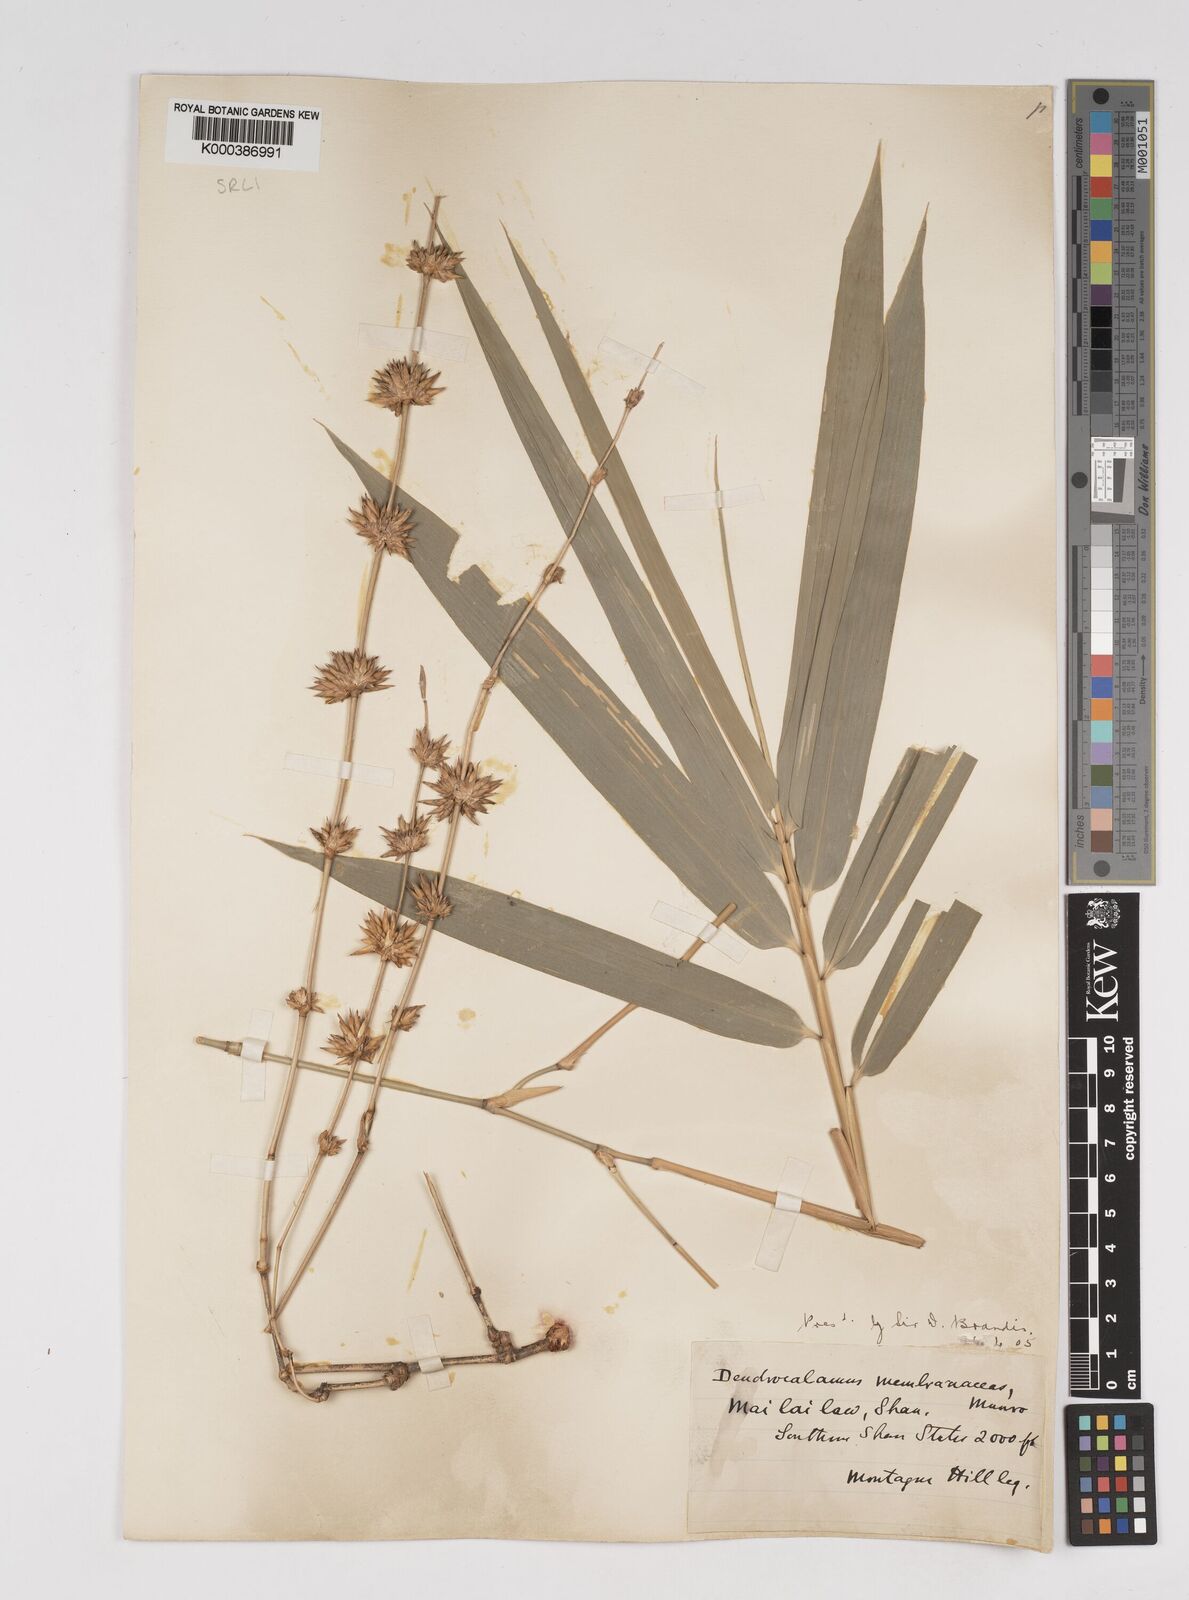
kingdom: Plantae
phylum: Tracheophyta
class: Liliopsida
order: Poales
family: Poaceae
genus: Dendrocalamus
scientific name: Dendrocalamus membranaceus
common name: White bamboo
